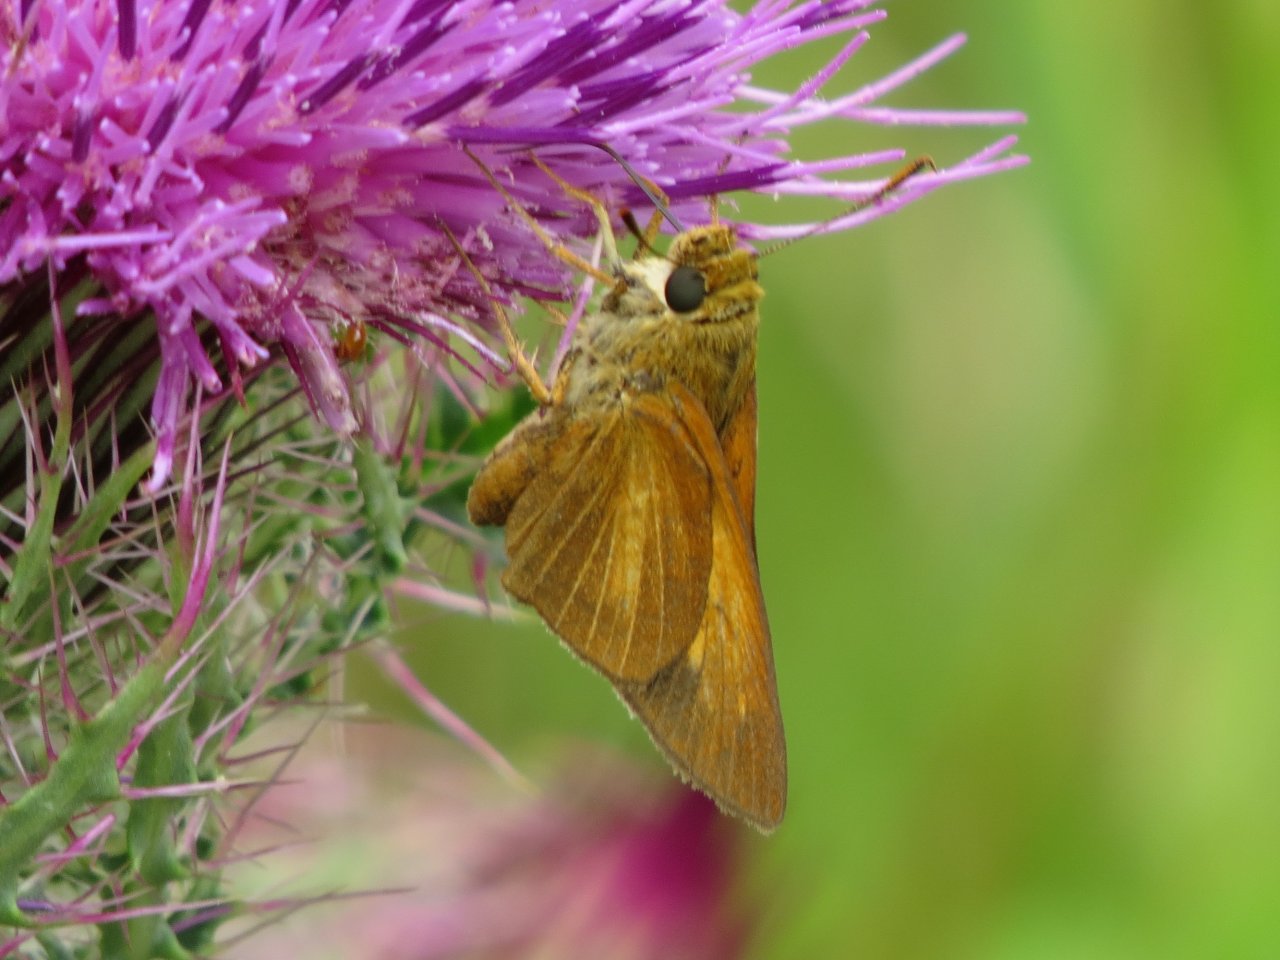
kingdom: Animalia
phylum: Arthropoda
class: Insecta
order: Lepidoptera
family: Hesperiidae
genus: Euphyes
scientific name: Euphyes dion
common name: Dion Skipper
